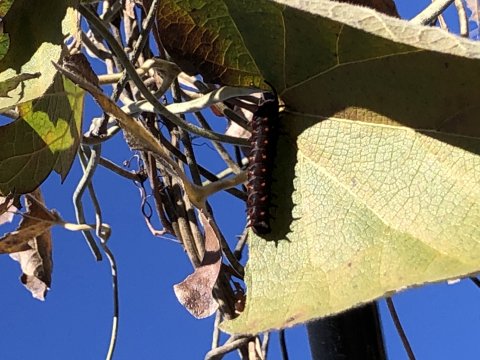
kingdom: Animalia
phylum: Arthropoda
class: Insecta
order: Lepidoptera
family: Papilionidae
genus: Battus
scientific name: Battus philenor
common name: Pipevine Swallowtail
